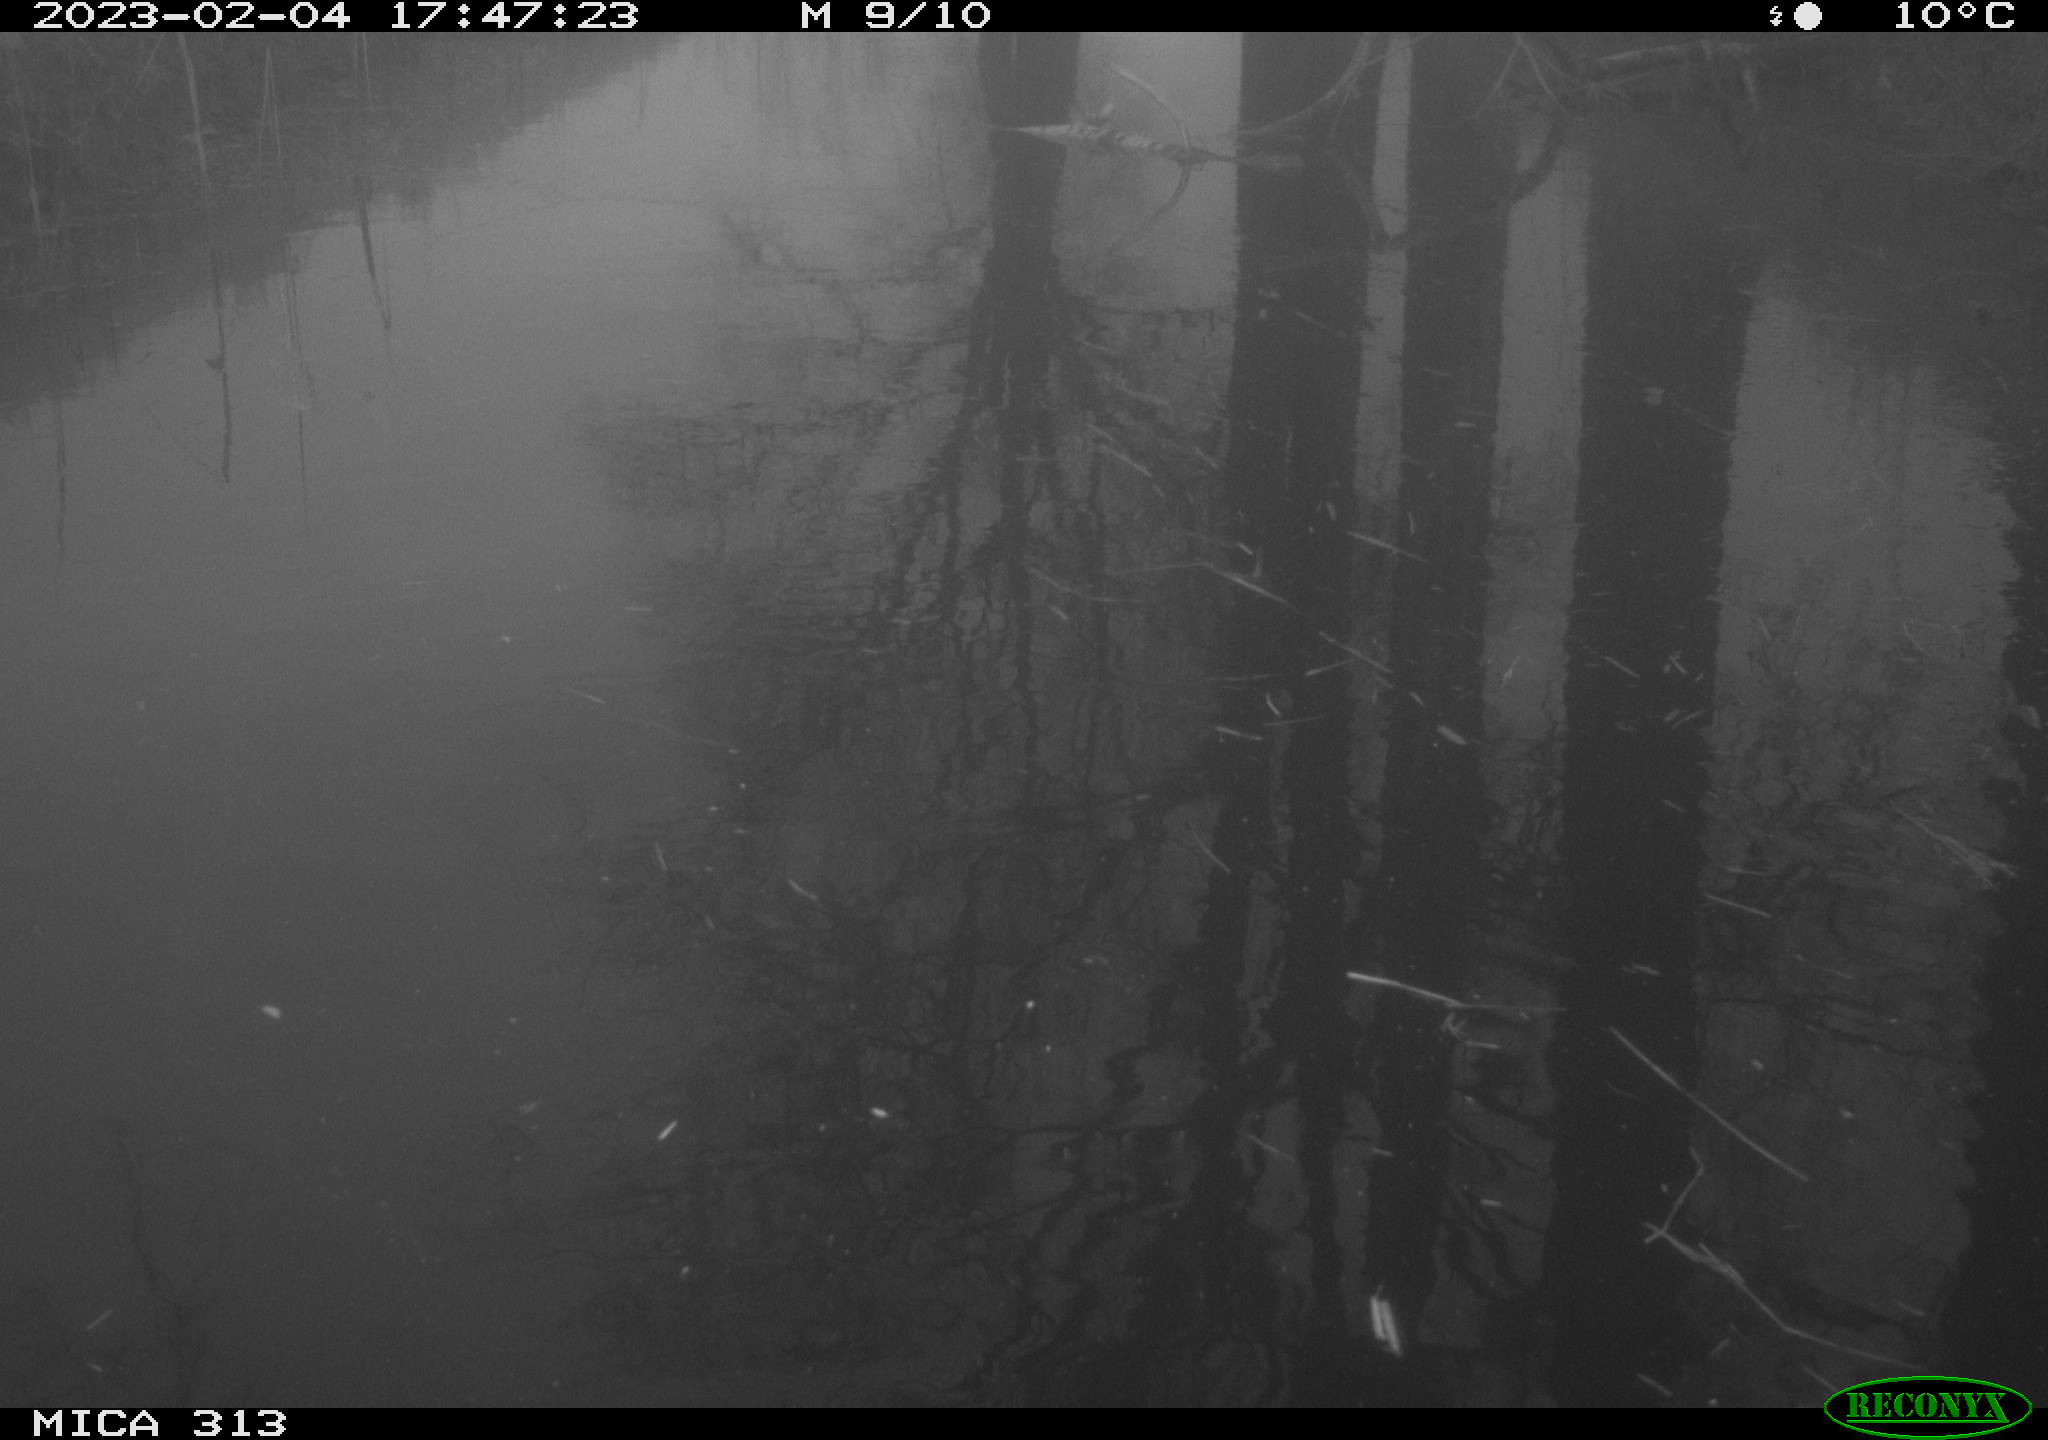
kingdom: Animalia
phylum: Chordata
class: Aves
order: Gruiformes
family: Rallidae
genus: Fulica
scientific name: Fulica atra
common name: Eurasian coot
